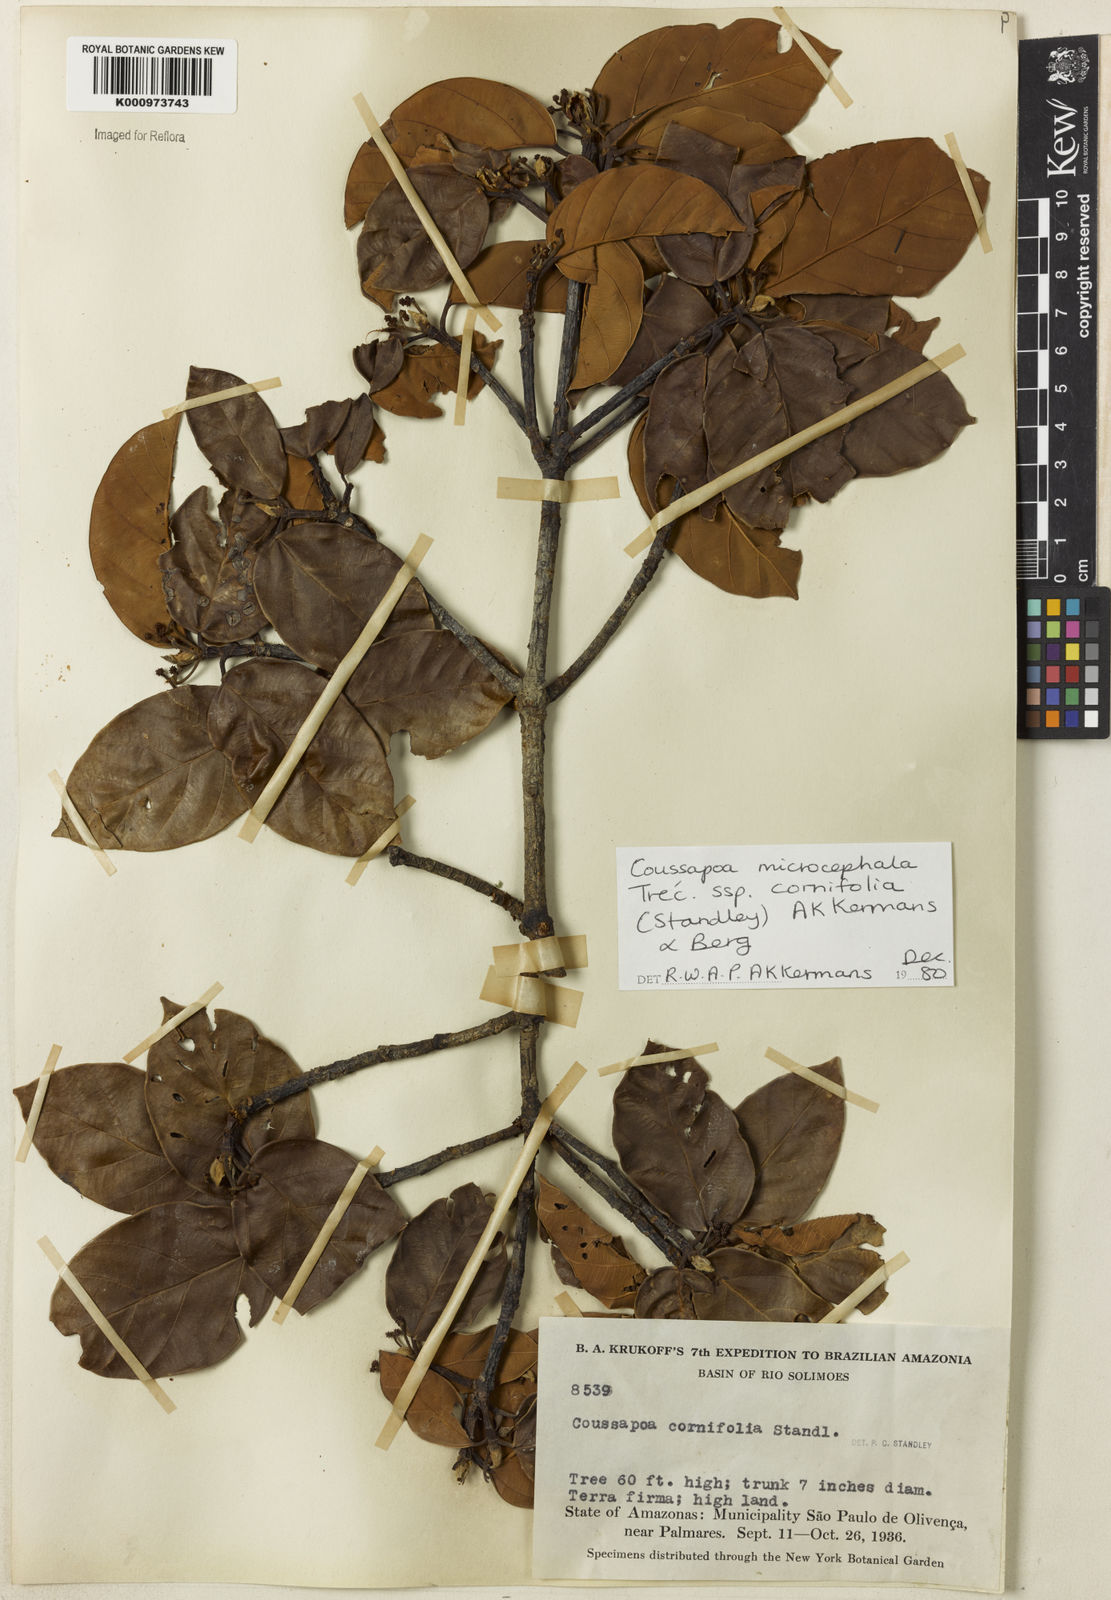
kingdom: Plantae
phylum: Tracheophyta
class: Magnoliopsida
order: Rosales
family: Urticaceae
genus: Coussapoa
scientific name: Coussapoa
